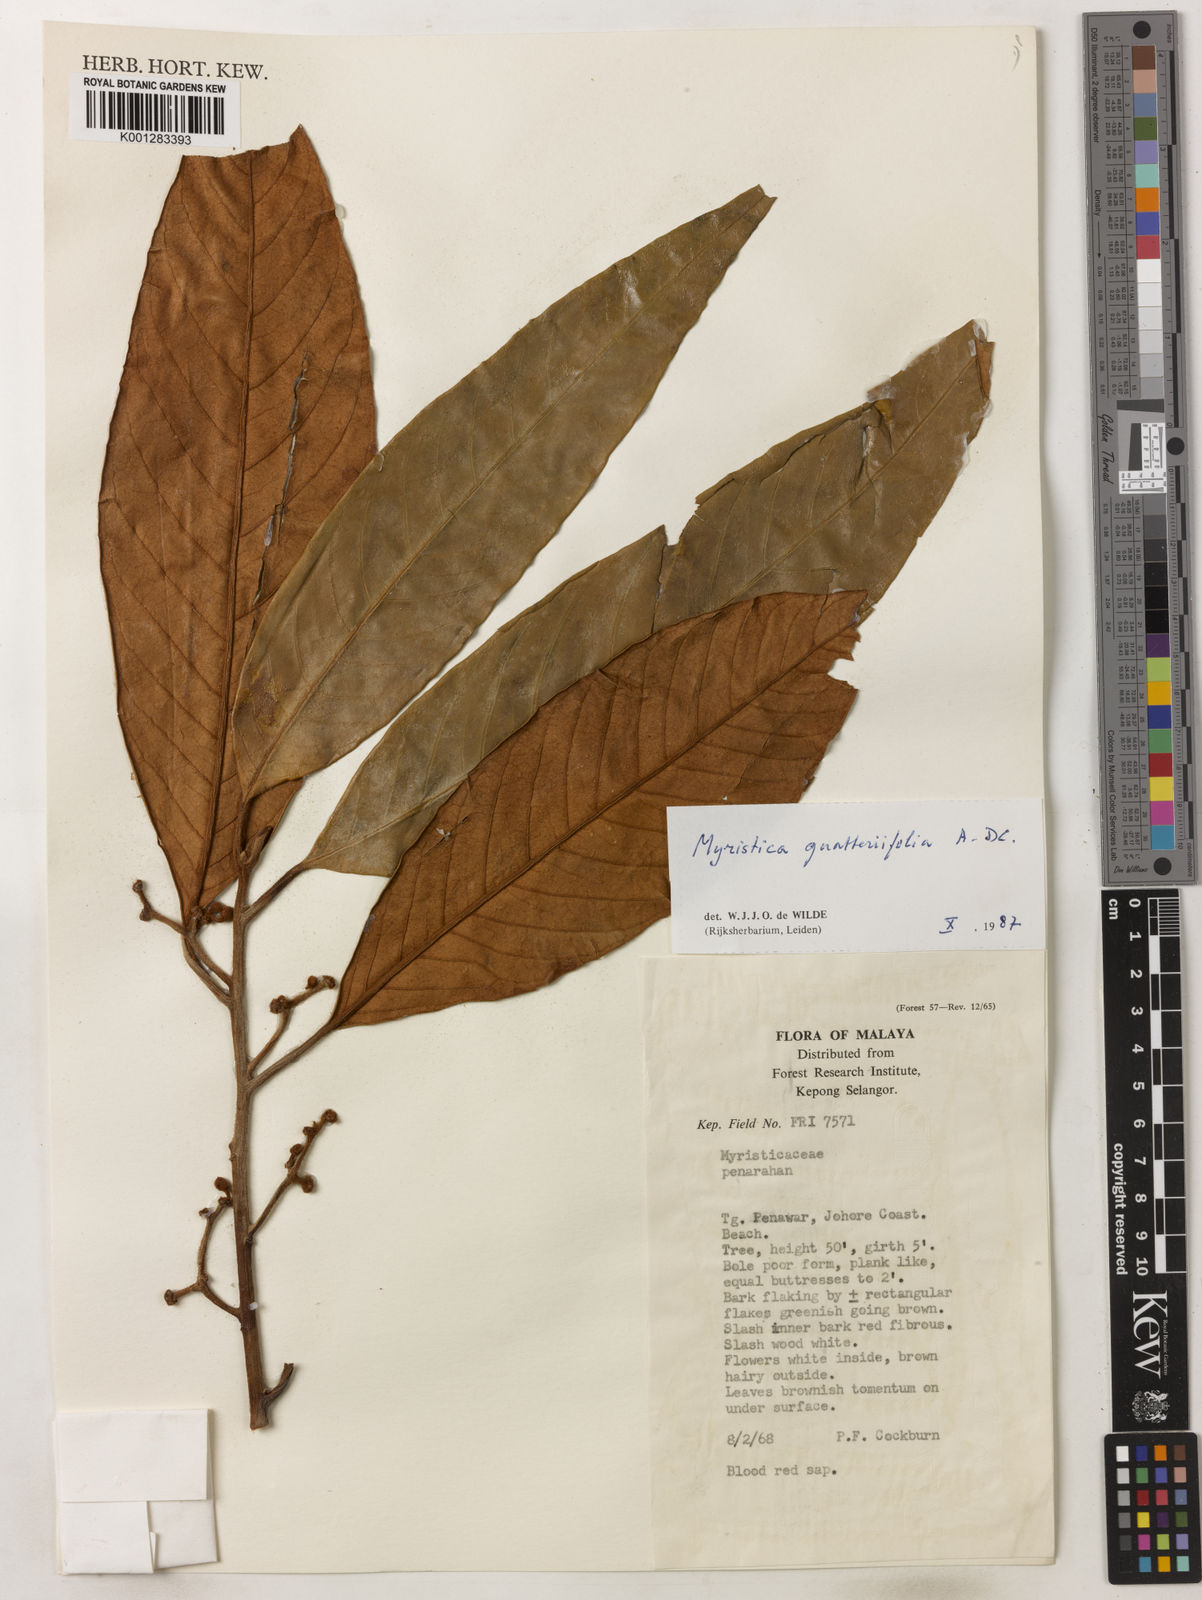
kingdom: Plantae
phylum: Tracheophyta
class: Magnoliopsida
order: Magnoliales
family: Myristicaceae
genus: Myristica
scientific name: Myristica
